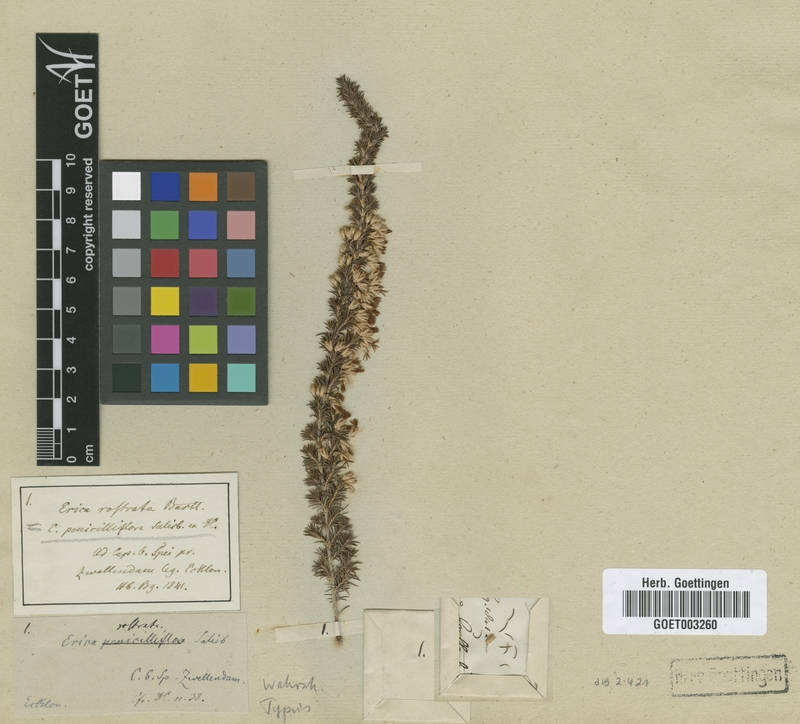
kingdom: Plantae
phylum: Tracheophyta
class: Magnoliopsida
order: Ericales
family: Ericaceae
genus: Erica
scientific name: Erica penicilliformis
